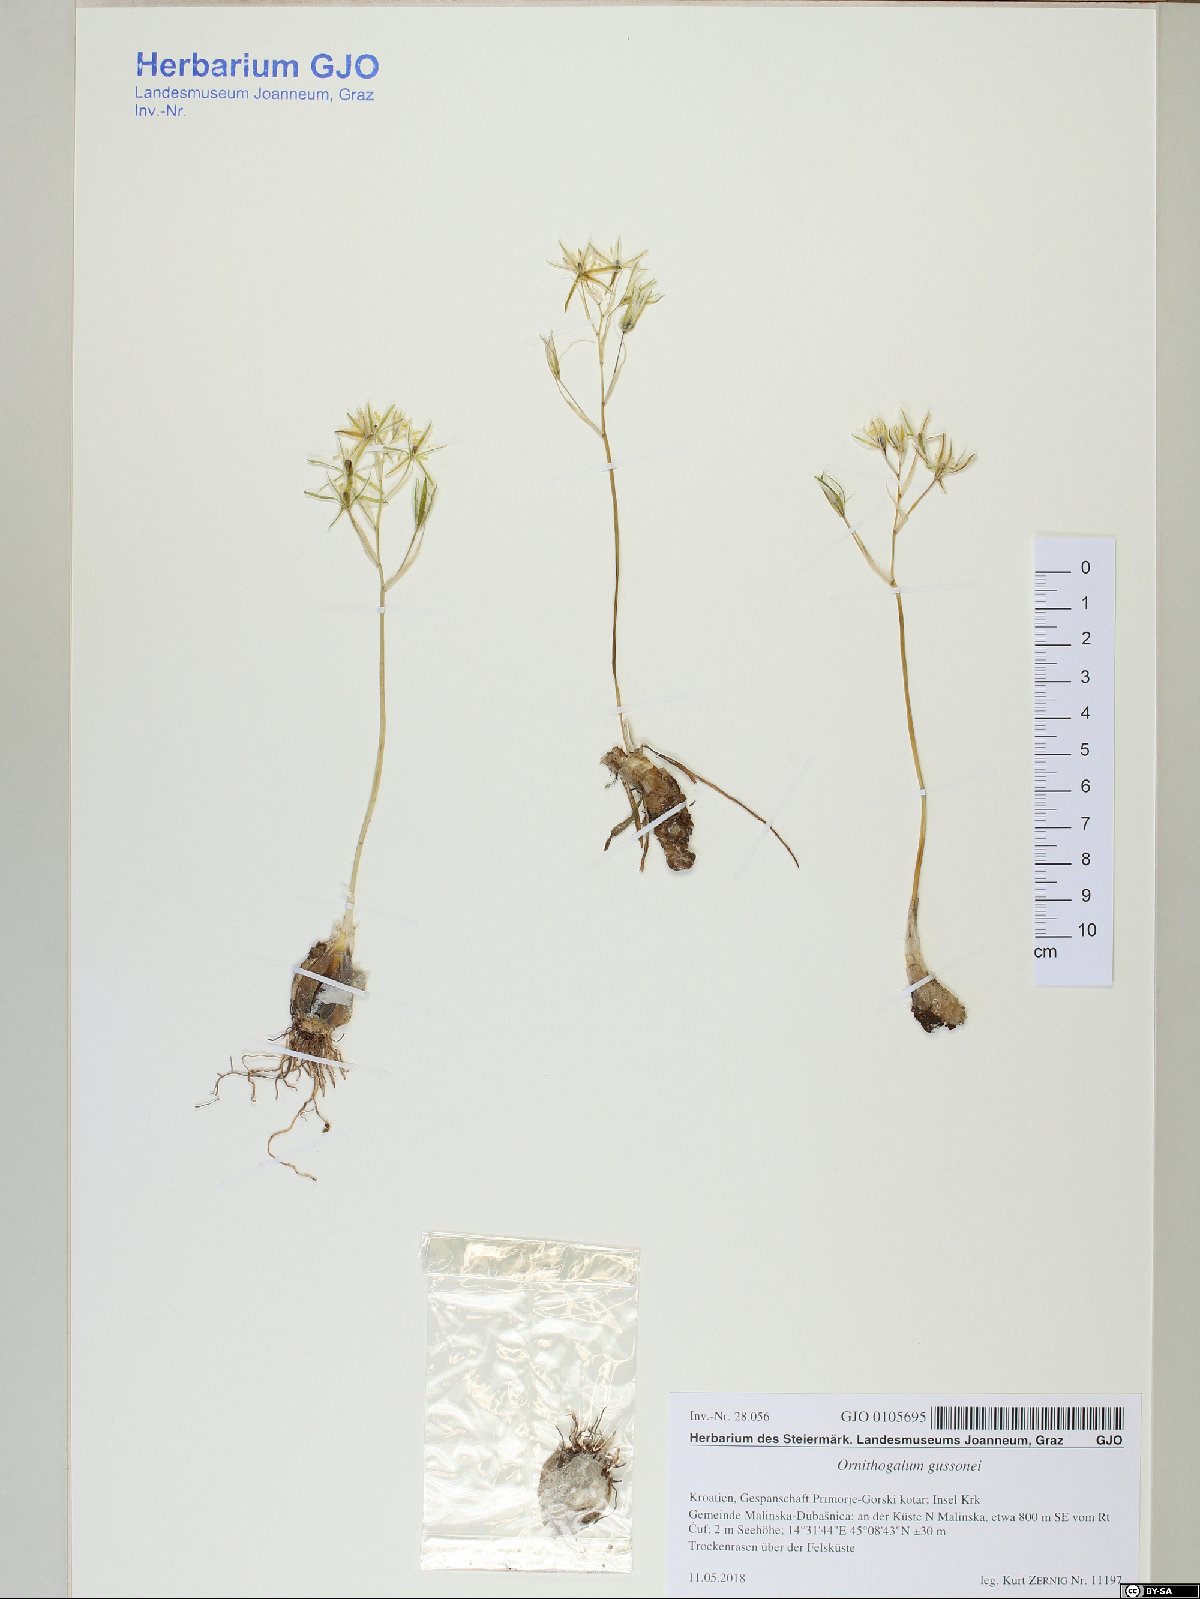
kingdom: Plantae
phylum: Tracheophyta
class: Liliopsida
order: Asparagales
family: Asparagaceae
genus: Ornithogalum
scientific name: Ornithogalum gussonei
